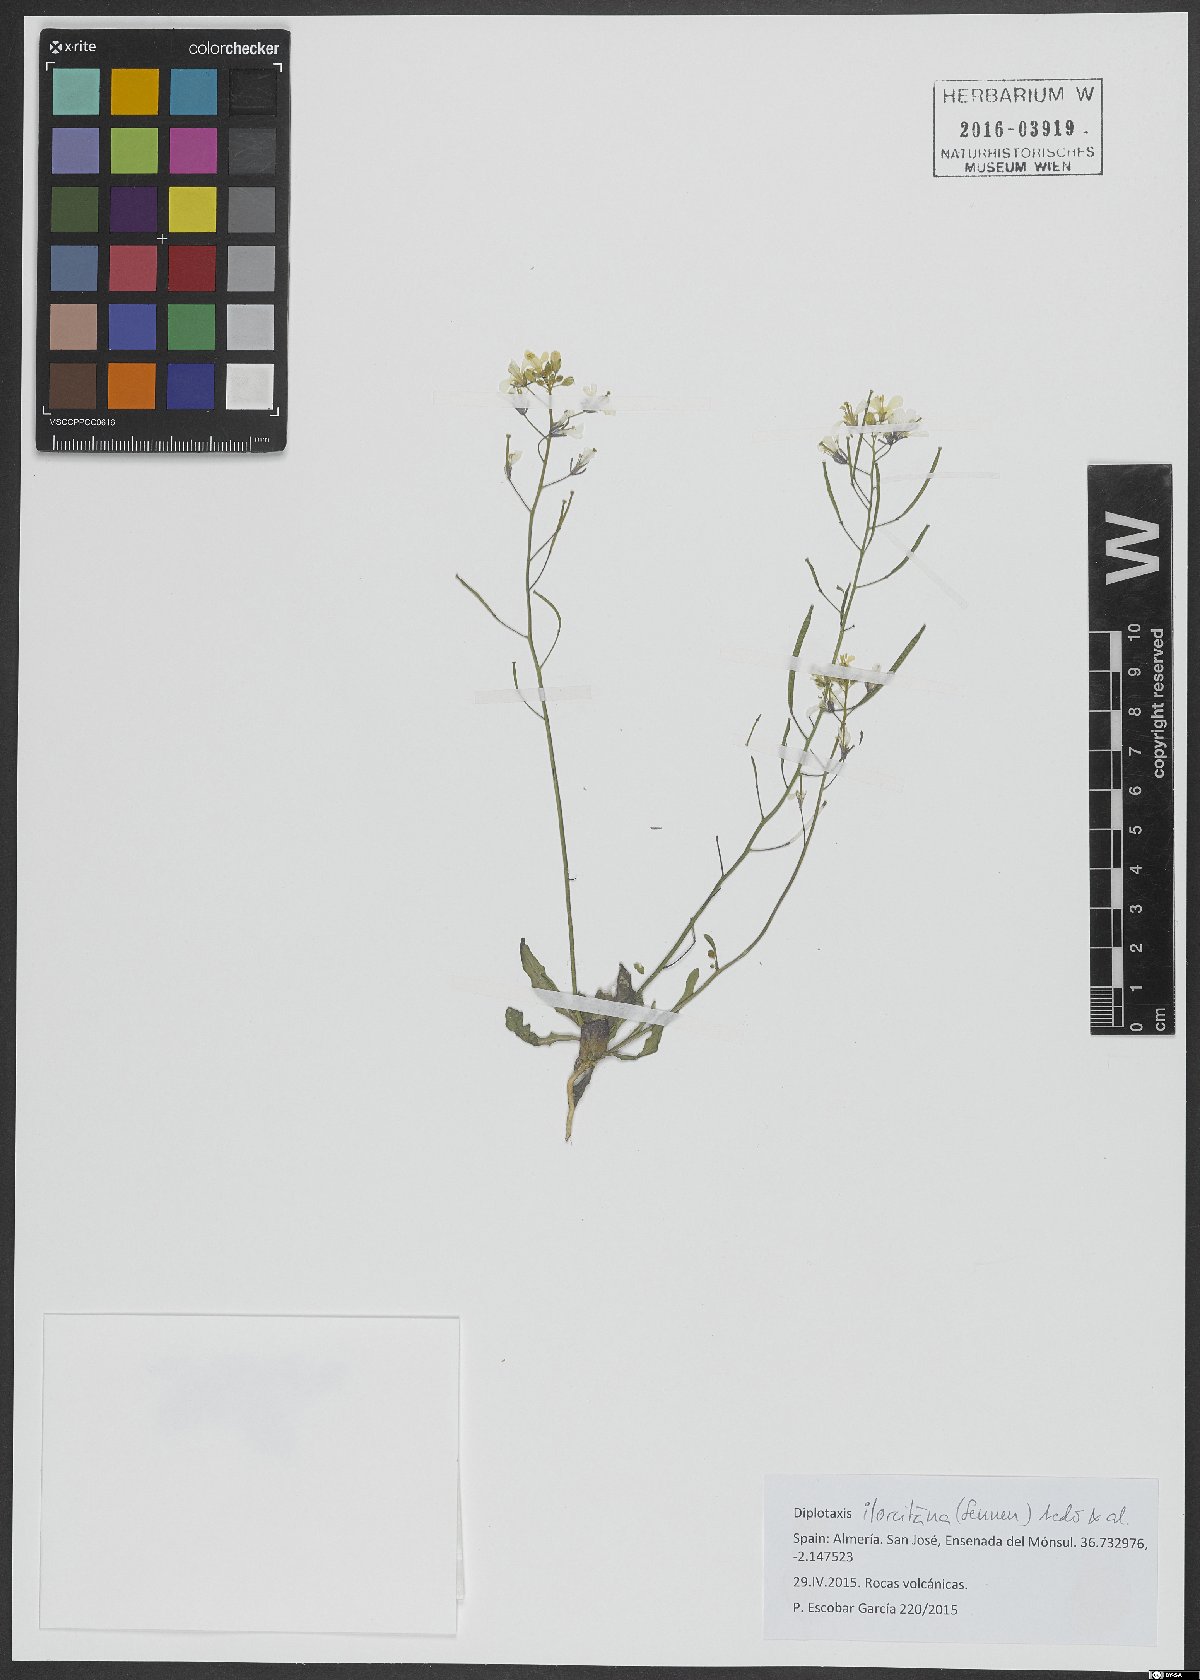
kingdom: Plantae
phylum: Tracheophyta
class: Magnoliopsida
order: Brassicales
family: Brassicaceae
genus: Diplotaxis
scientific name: Diplotaxis ilorcitana
